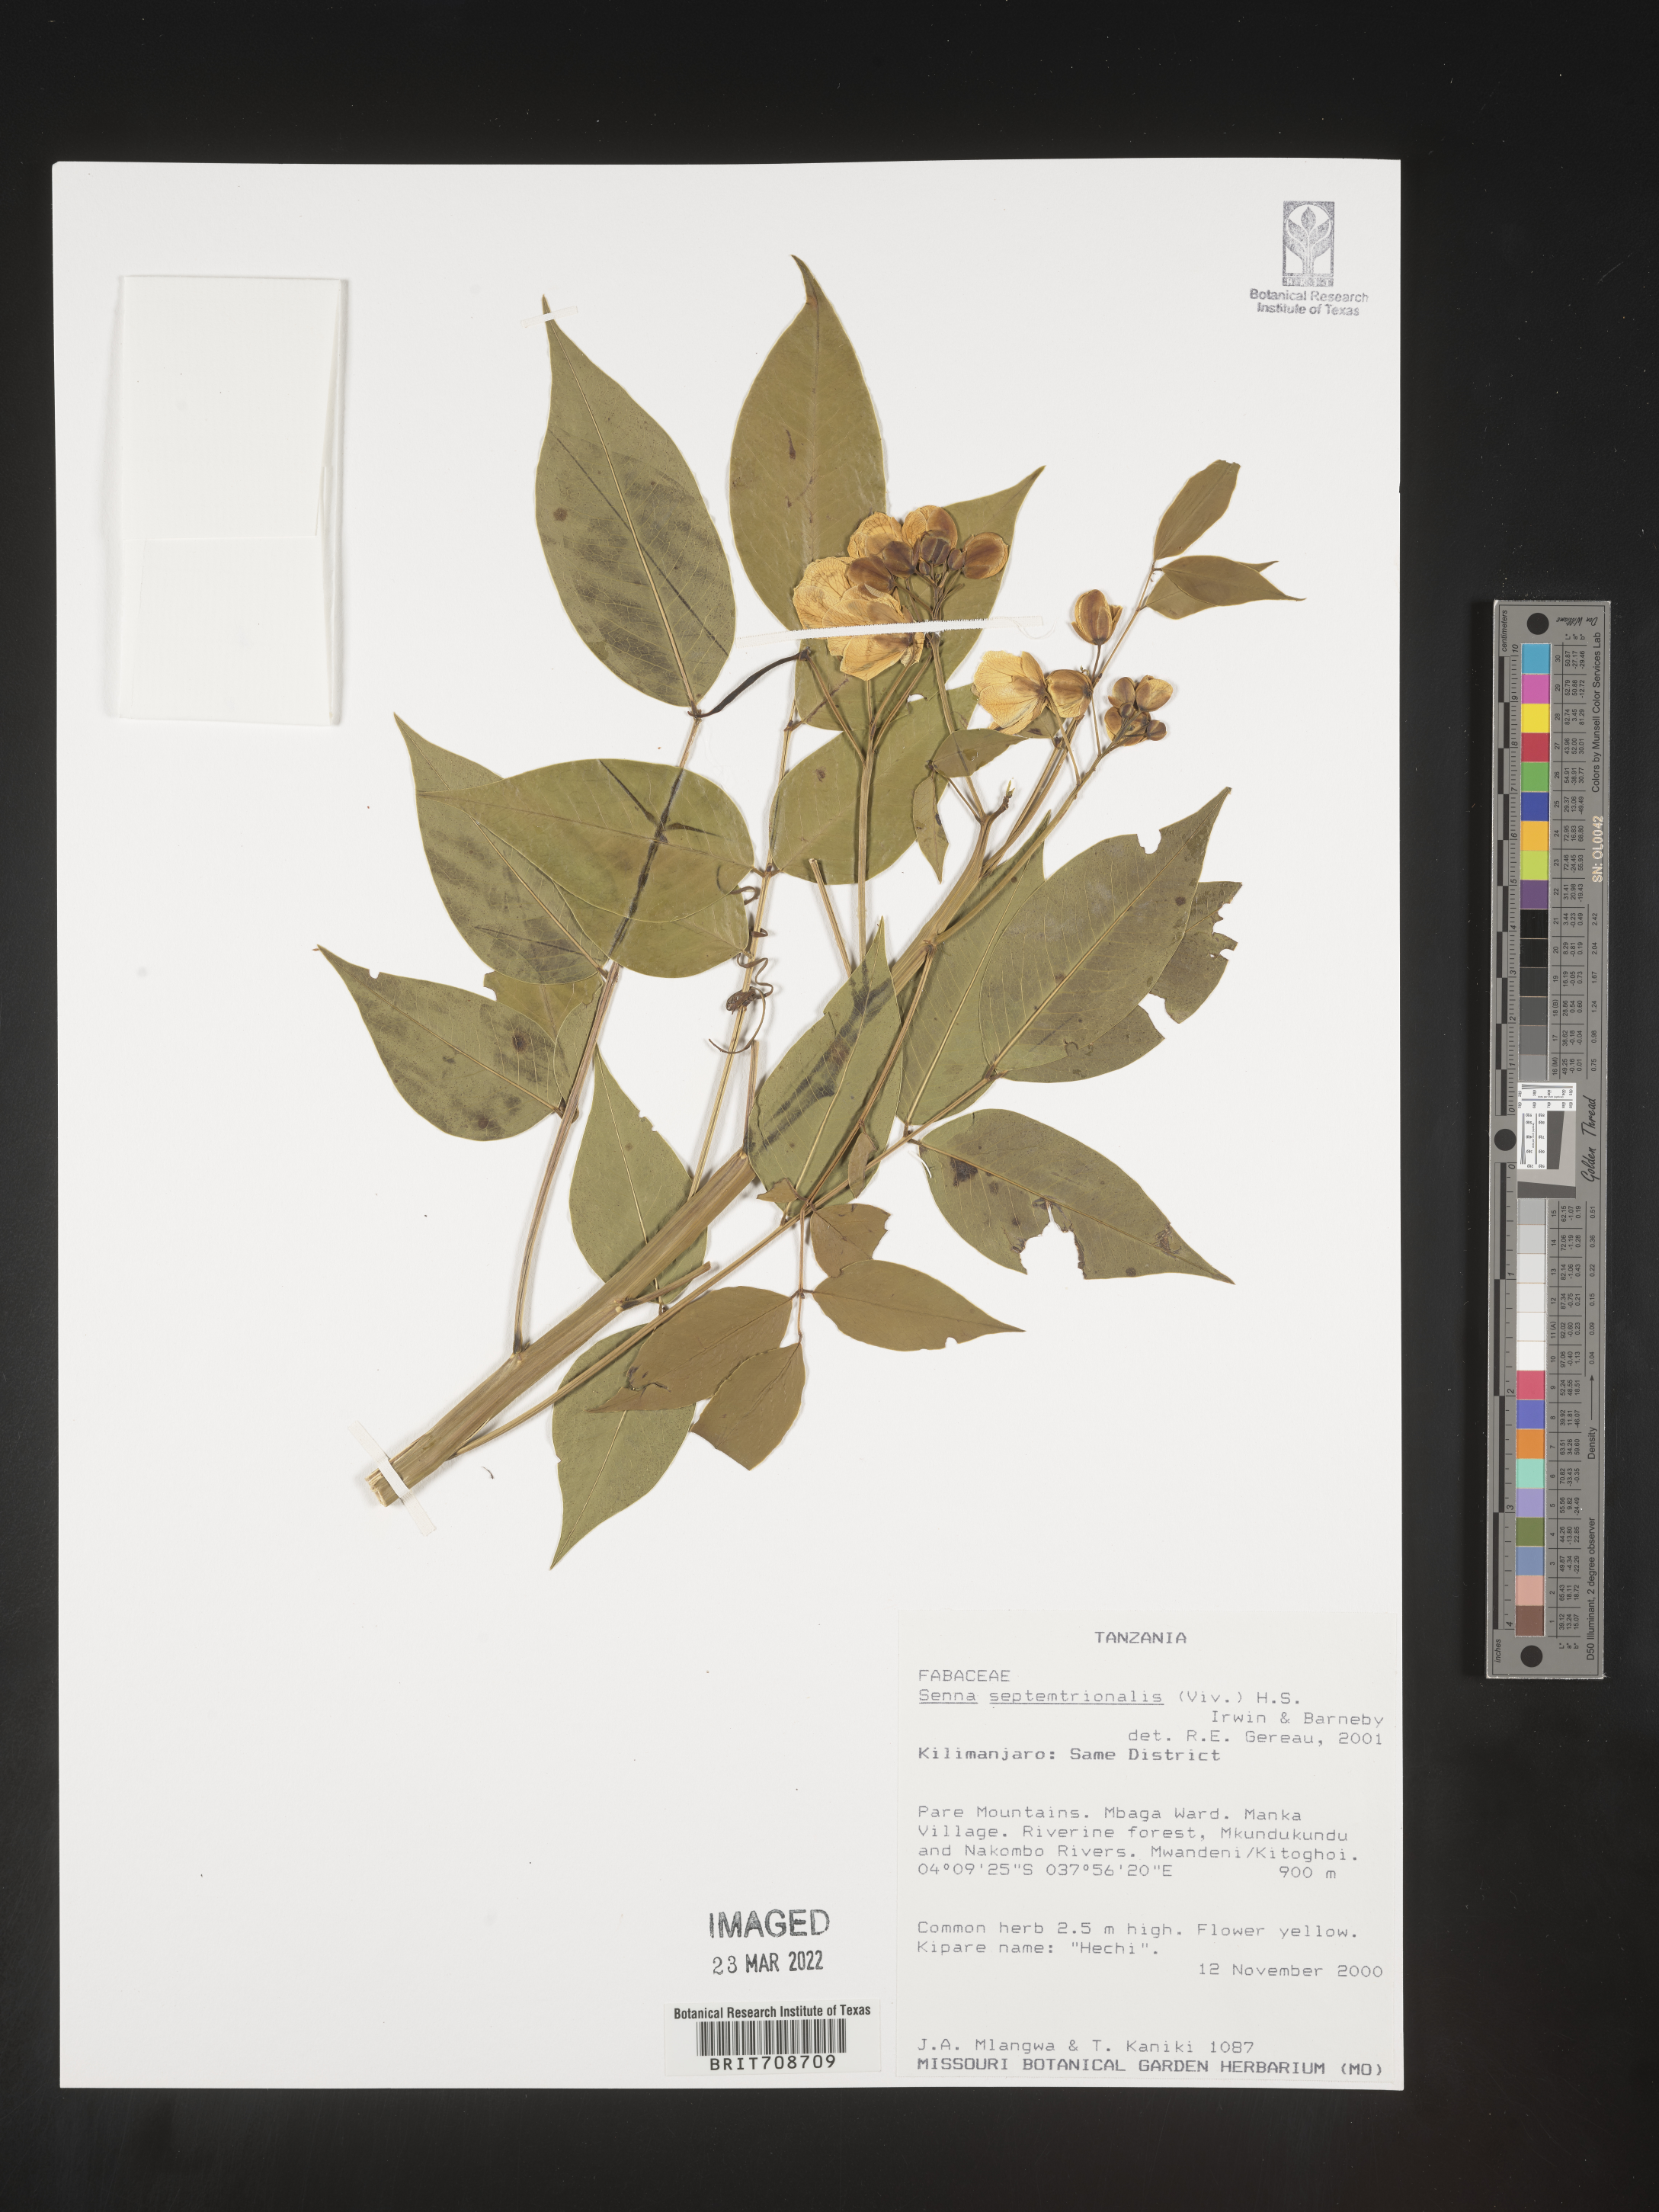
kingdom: Plantae
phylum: Tracheophyta
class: Magnoliopsida
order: Fabales
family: Fabaceae
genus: Senna
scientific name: Senna
